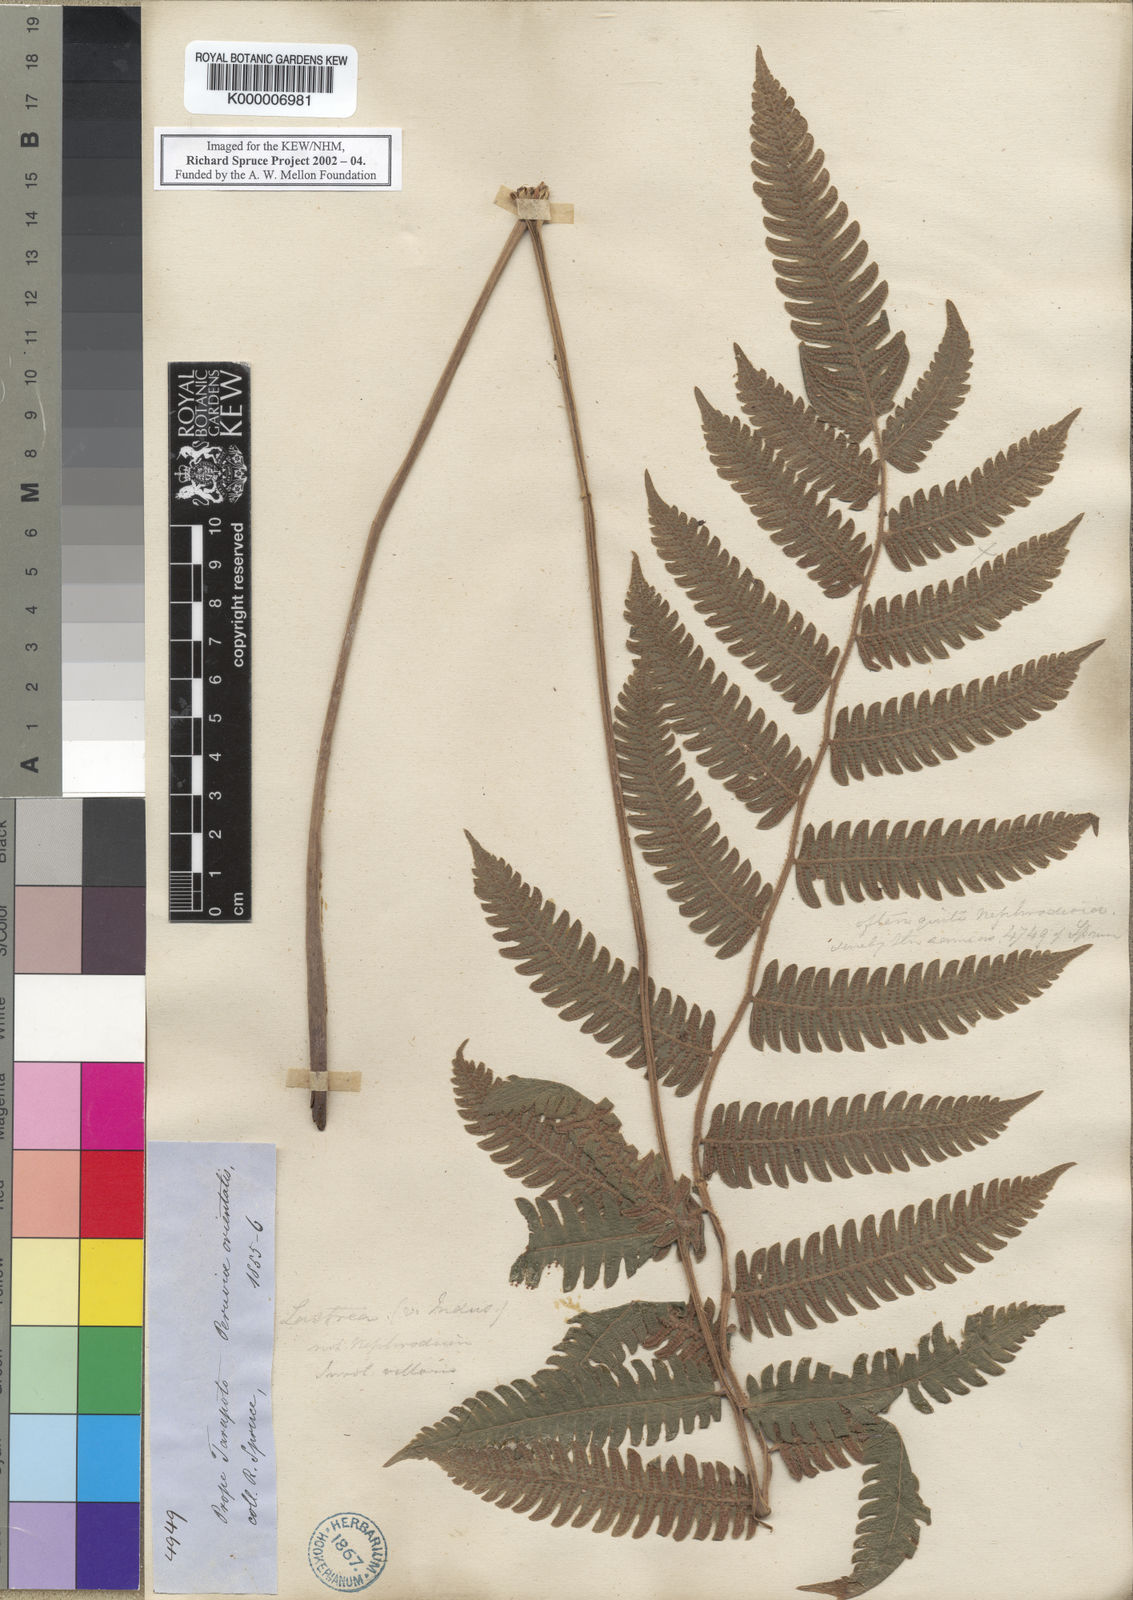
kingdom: Plantae
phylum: Tracheophyta
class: Polypodiopsida
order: Polypodiales
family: Thelypteridaceae
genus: Goniopteris
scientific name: Goniopteris pennata
